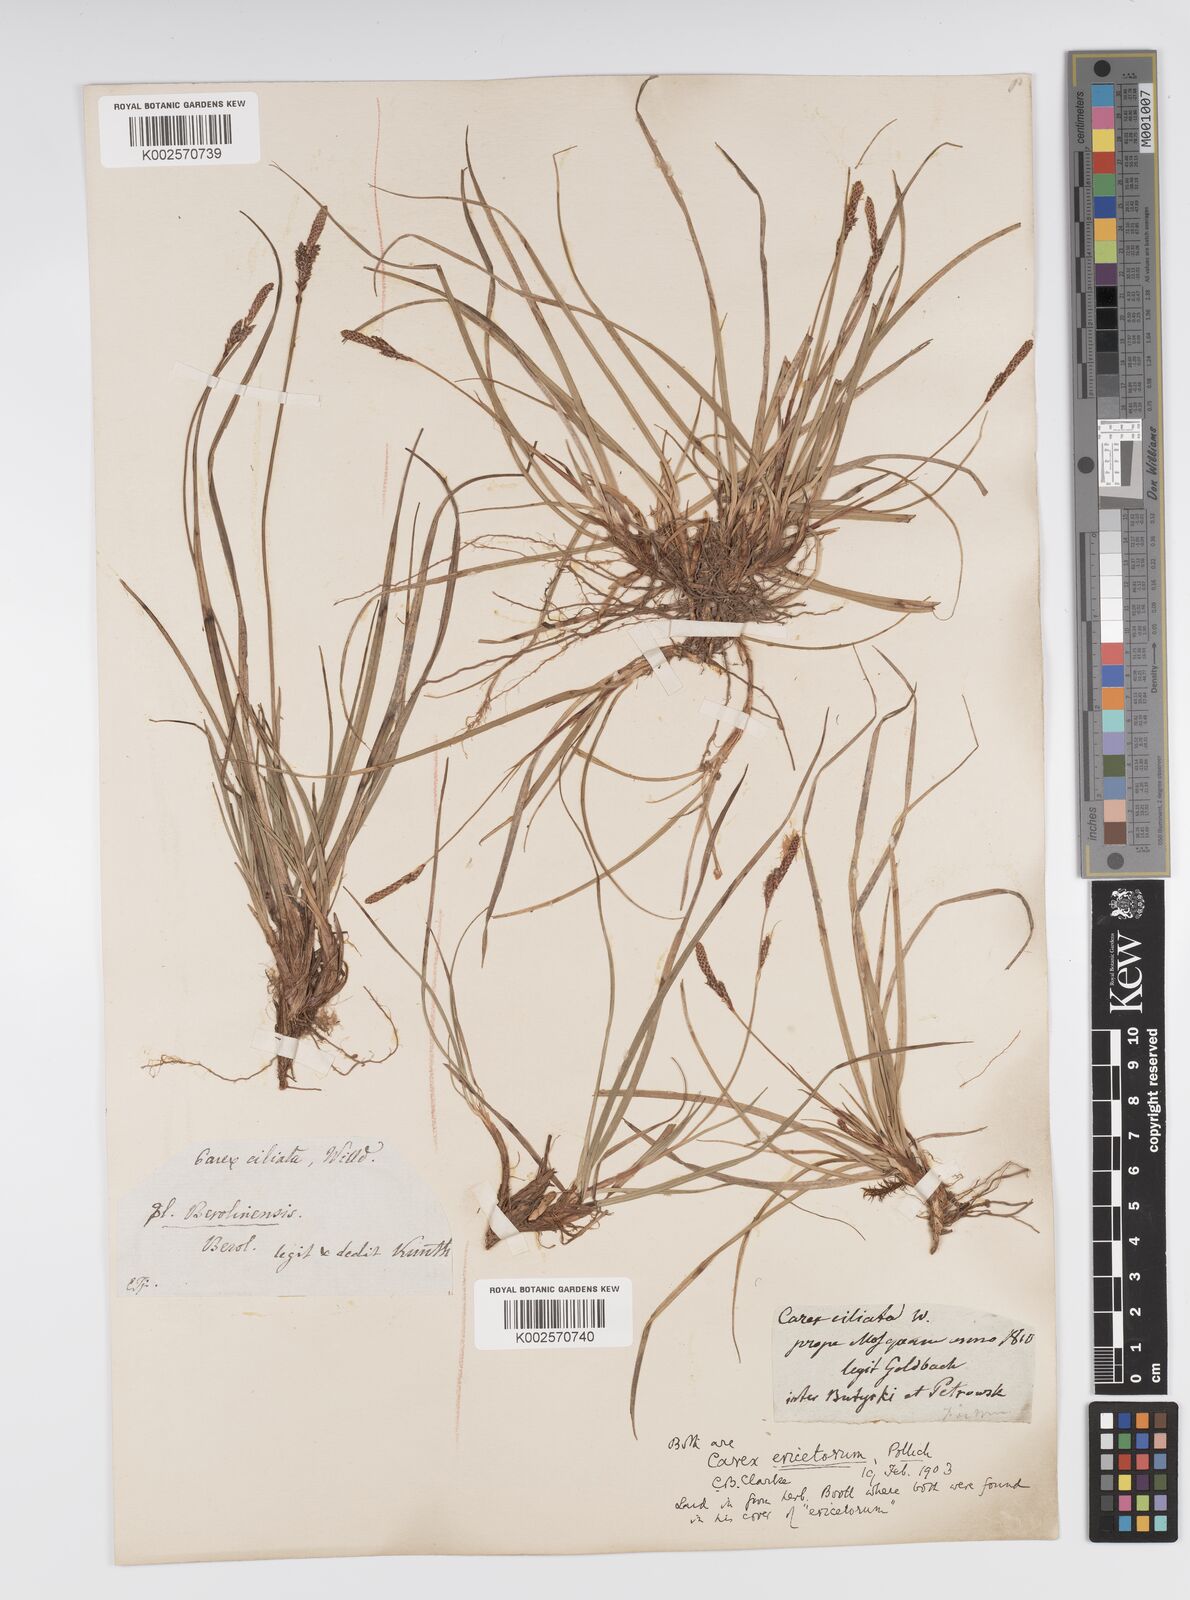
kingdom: Plantae
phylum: Tracheophyta
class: Liliopsida
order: Poales
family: Cyperaceae
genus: Carex
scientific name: Carex ericetorum
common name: Rare spring-sedge
